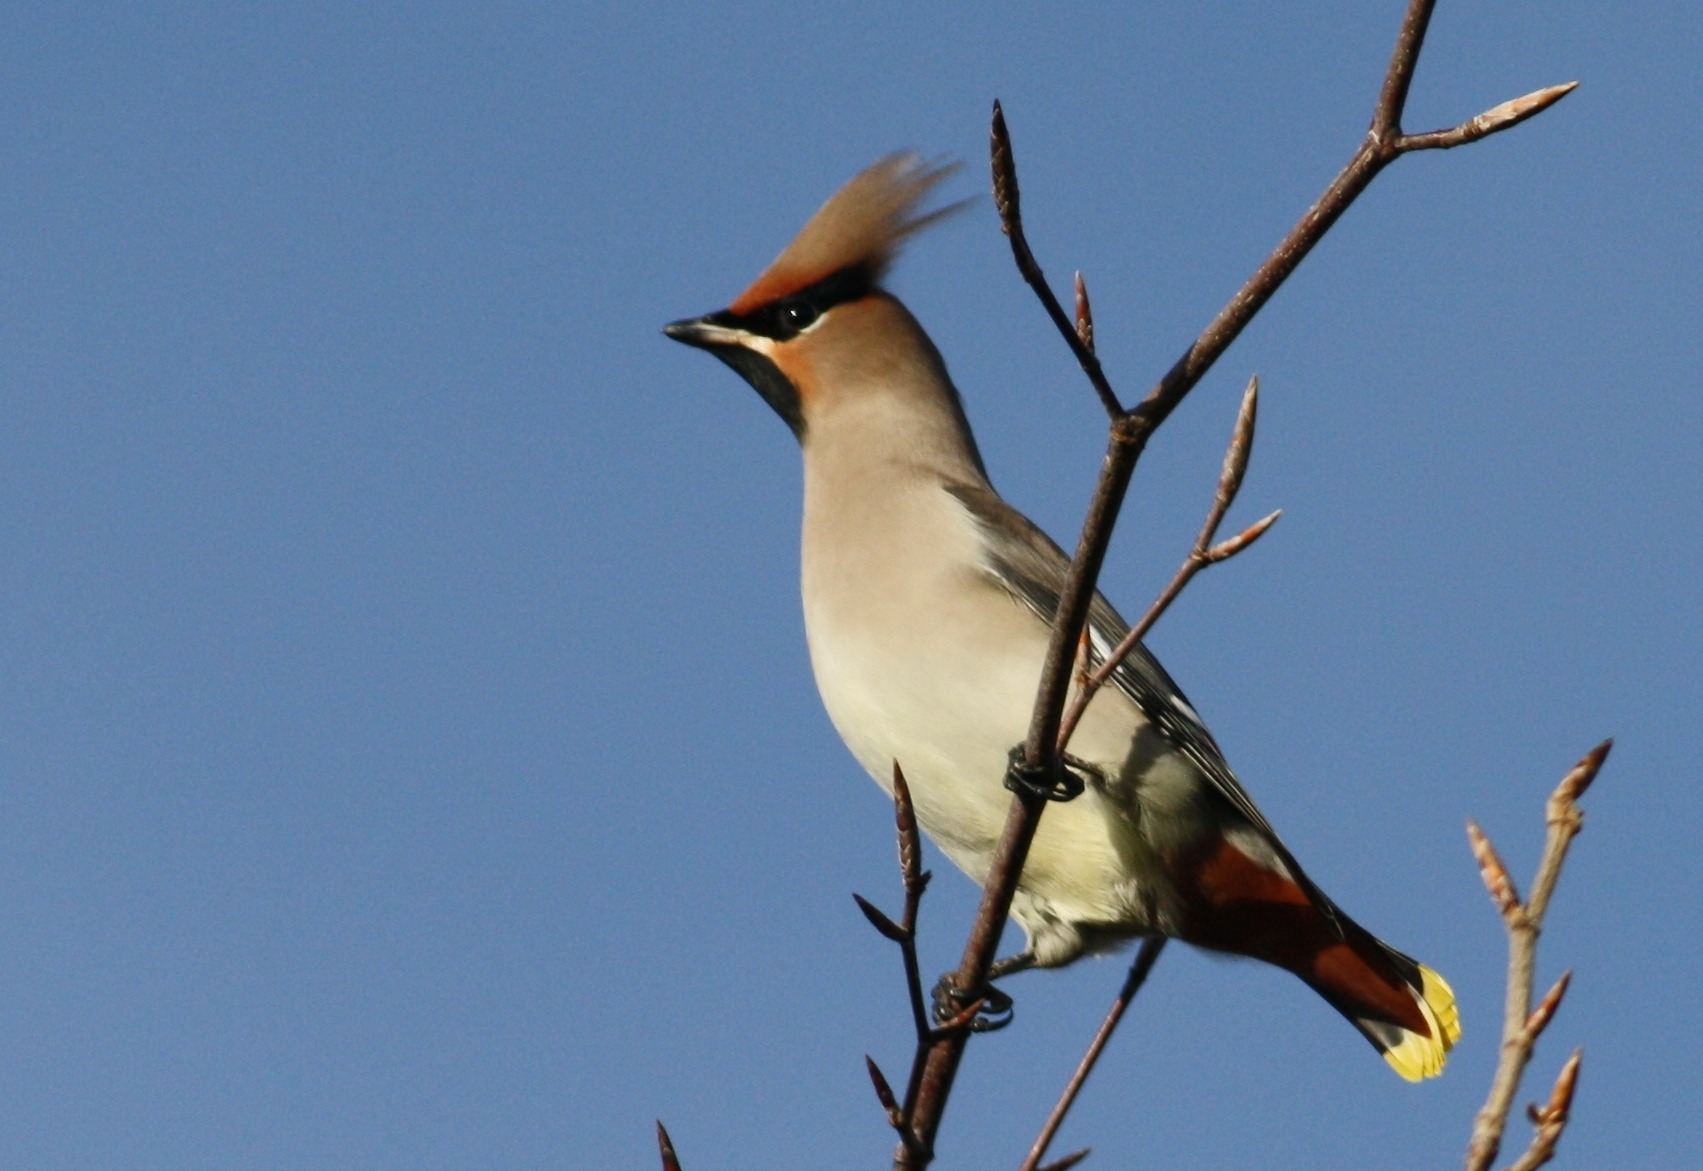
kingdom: Animalia
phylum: Chordata
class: Aves
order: Passeriformes
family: Bombycillidae
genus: Bombycilla
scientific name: Bombycilla garrulus
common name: Silkehale
